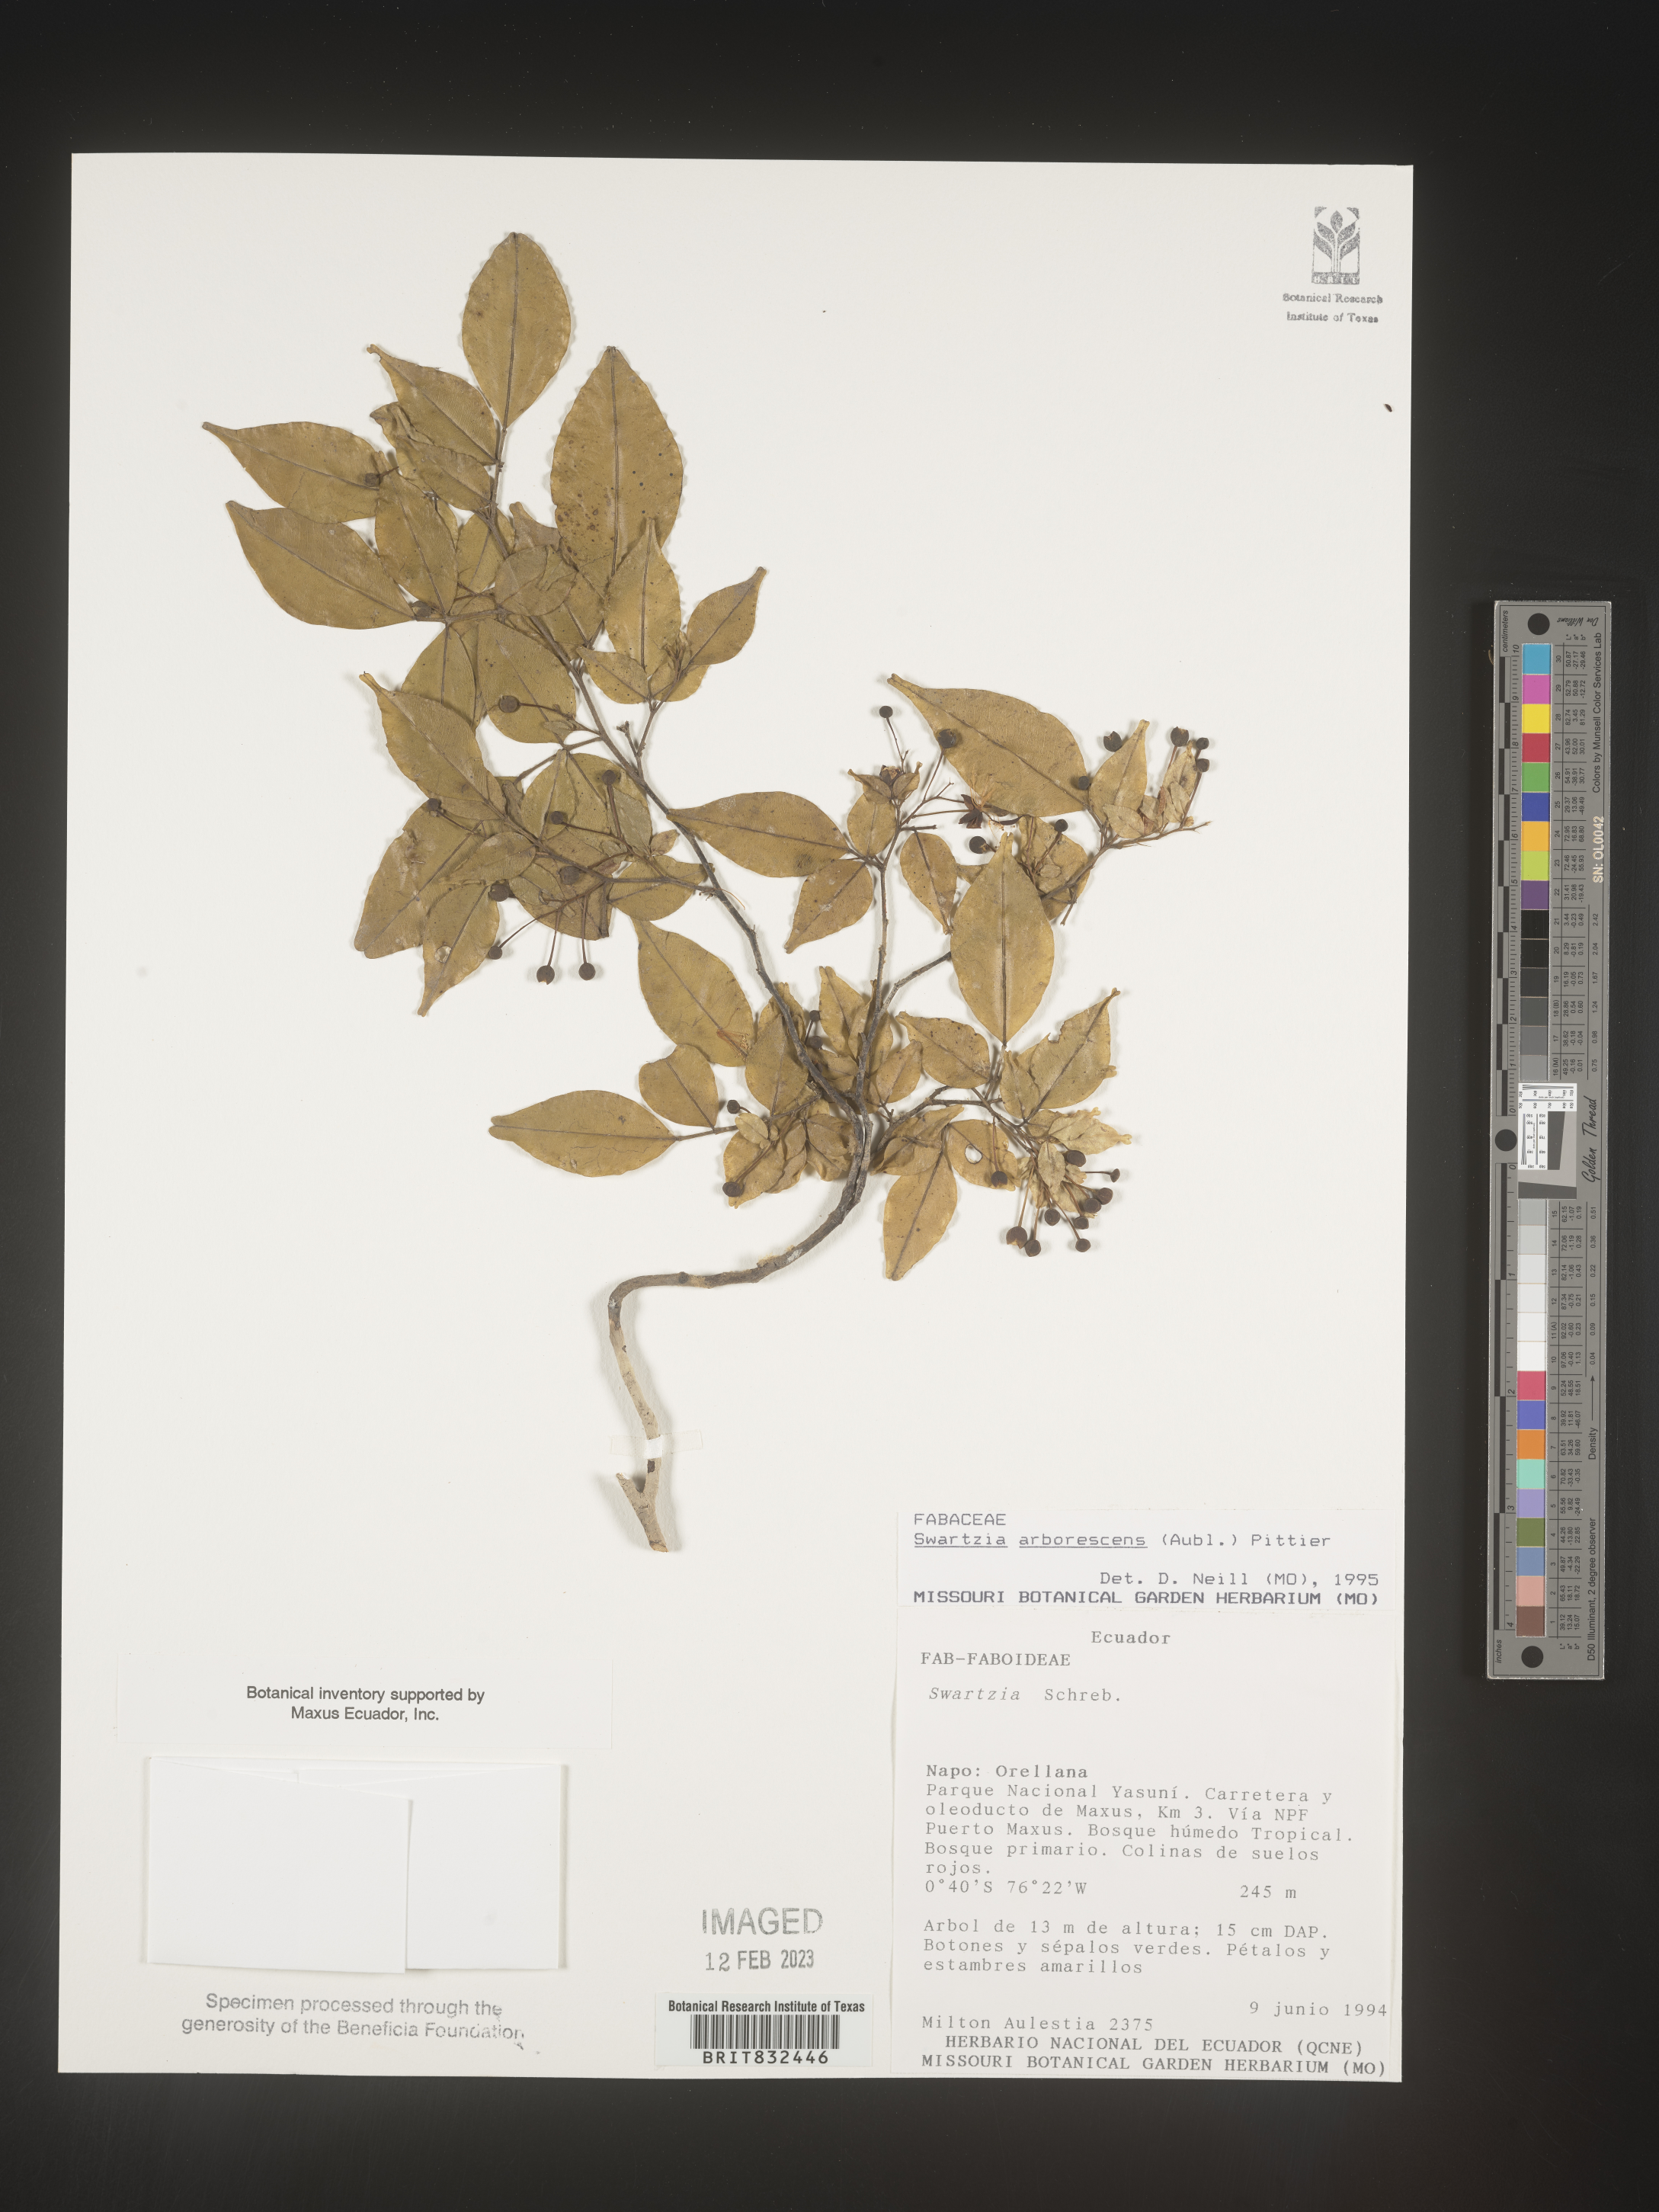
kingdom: Plantae
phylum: Tracheophyta
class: Magnoliopsida
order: Fabales
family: Fabaceae
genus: Swartzia
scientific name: Swartzia
